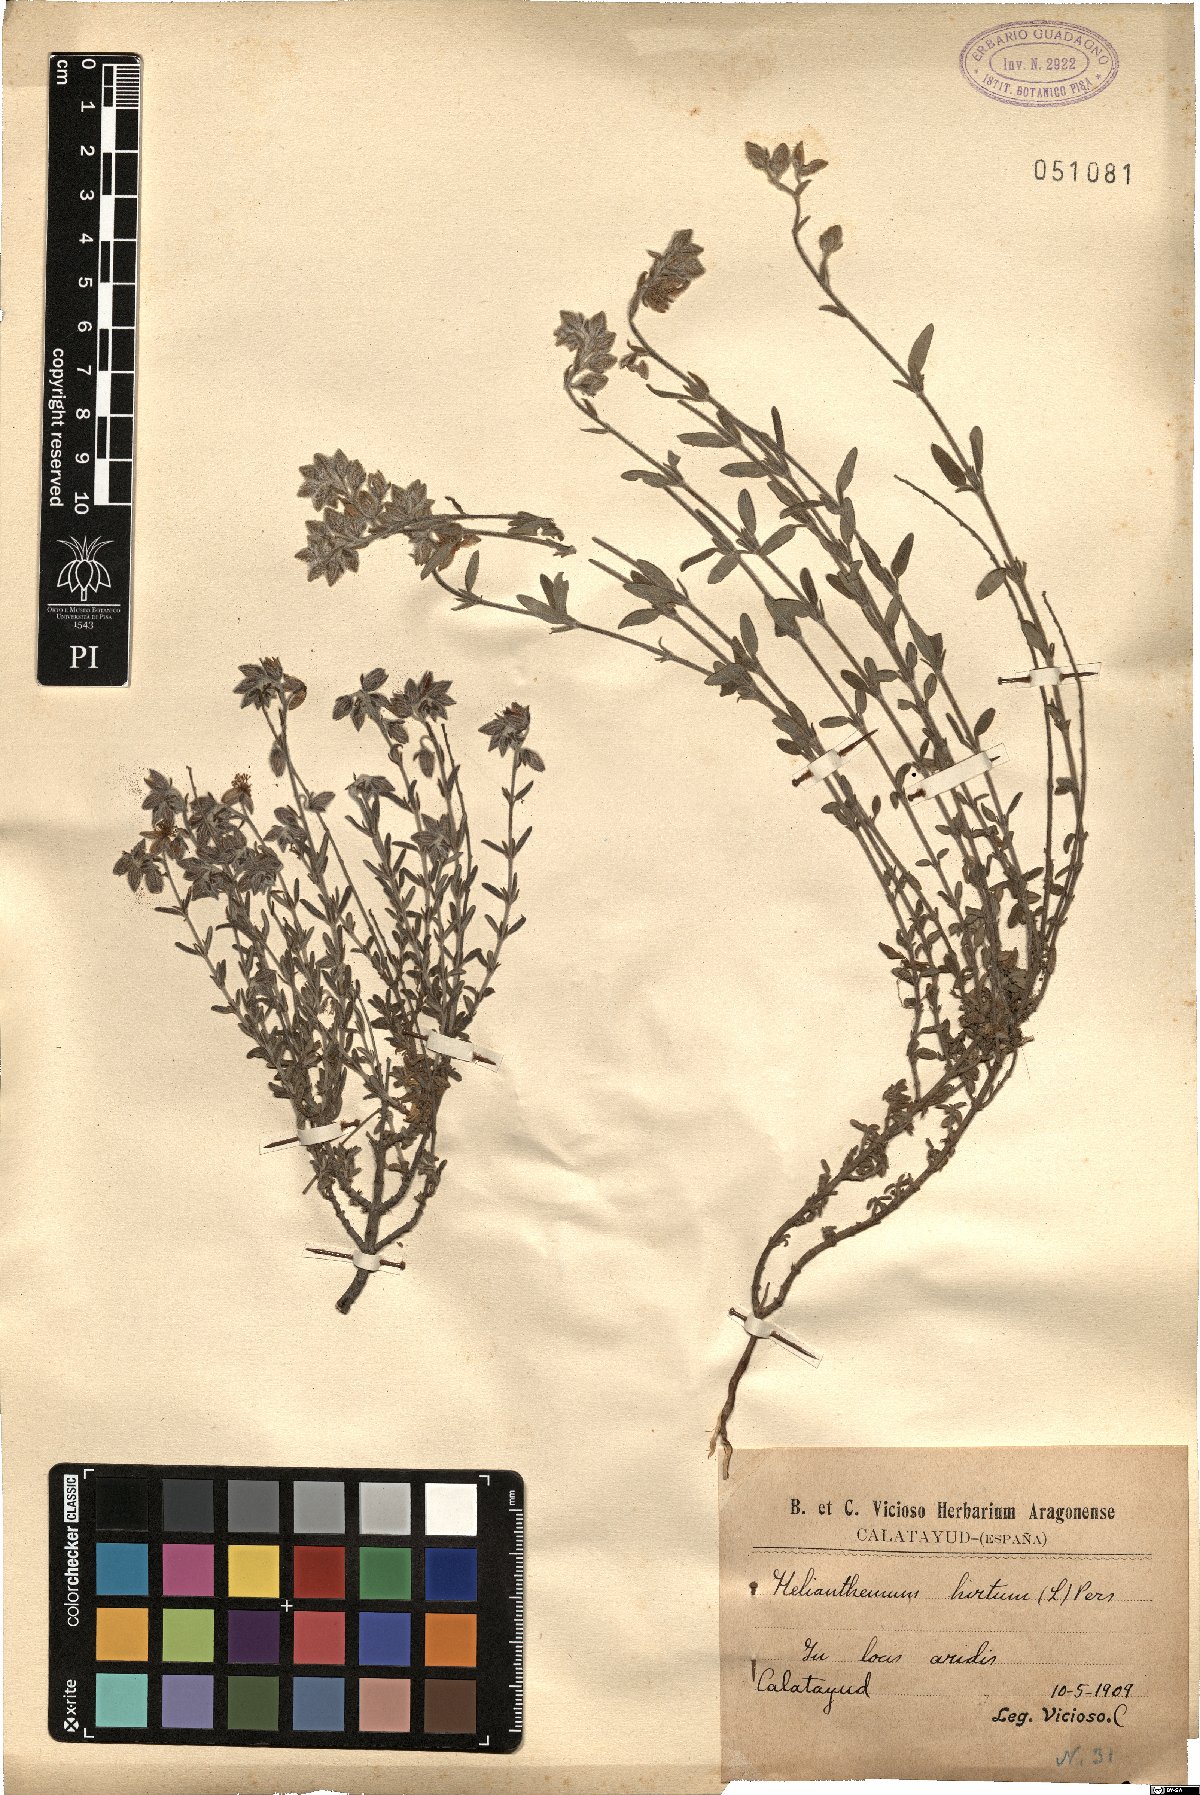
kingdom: Plantae
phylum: Tracheophyta
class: Magnoliopsida
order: Malvales
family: Cistaceae
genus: Helianthemum
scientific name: Helianthemum hirtum
